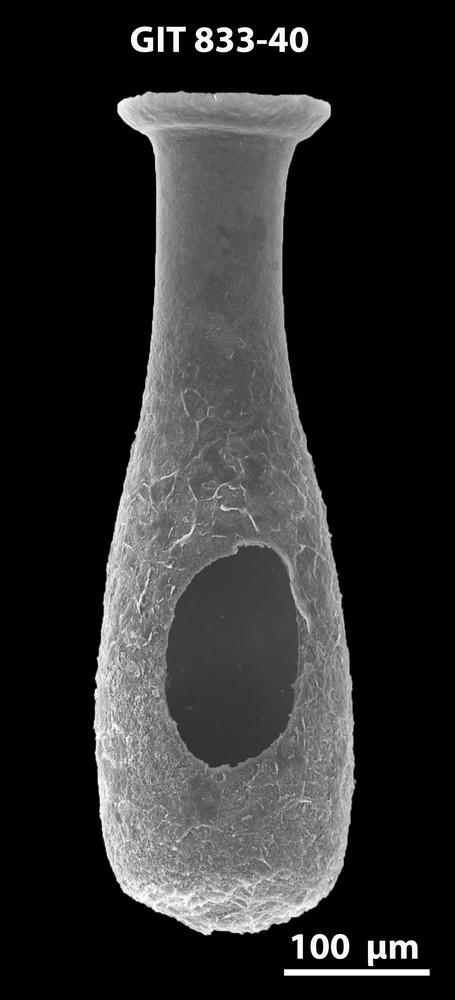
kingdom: Animalia
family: Lagenochitinidae
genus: Lagenochitina
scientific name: Lagenochitina megaesthonica
